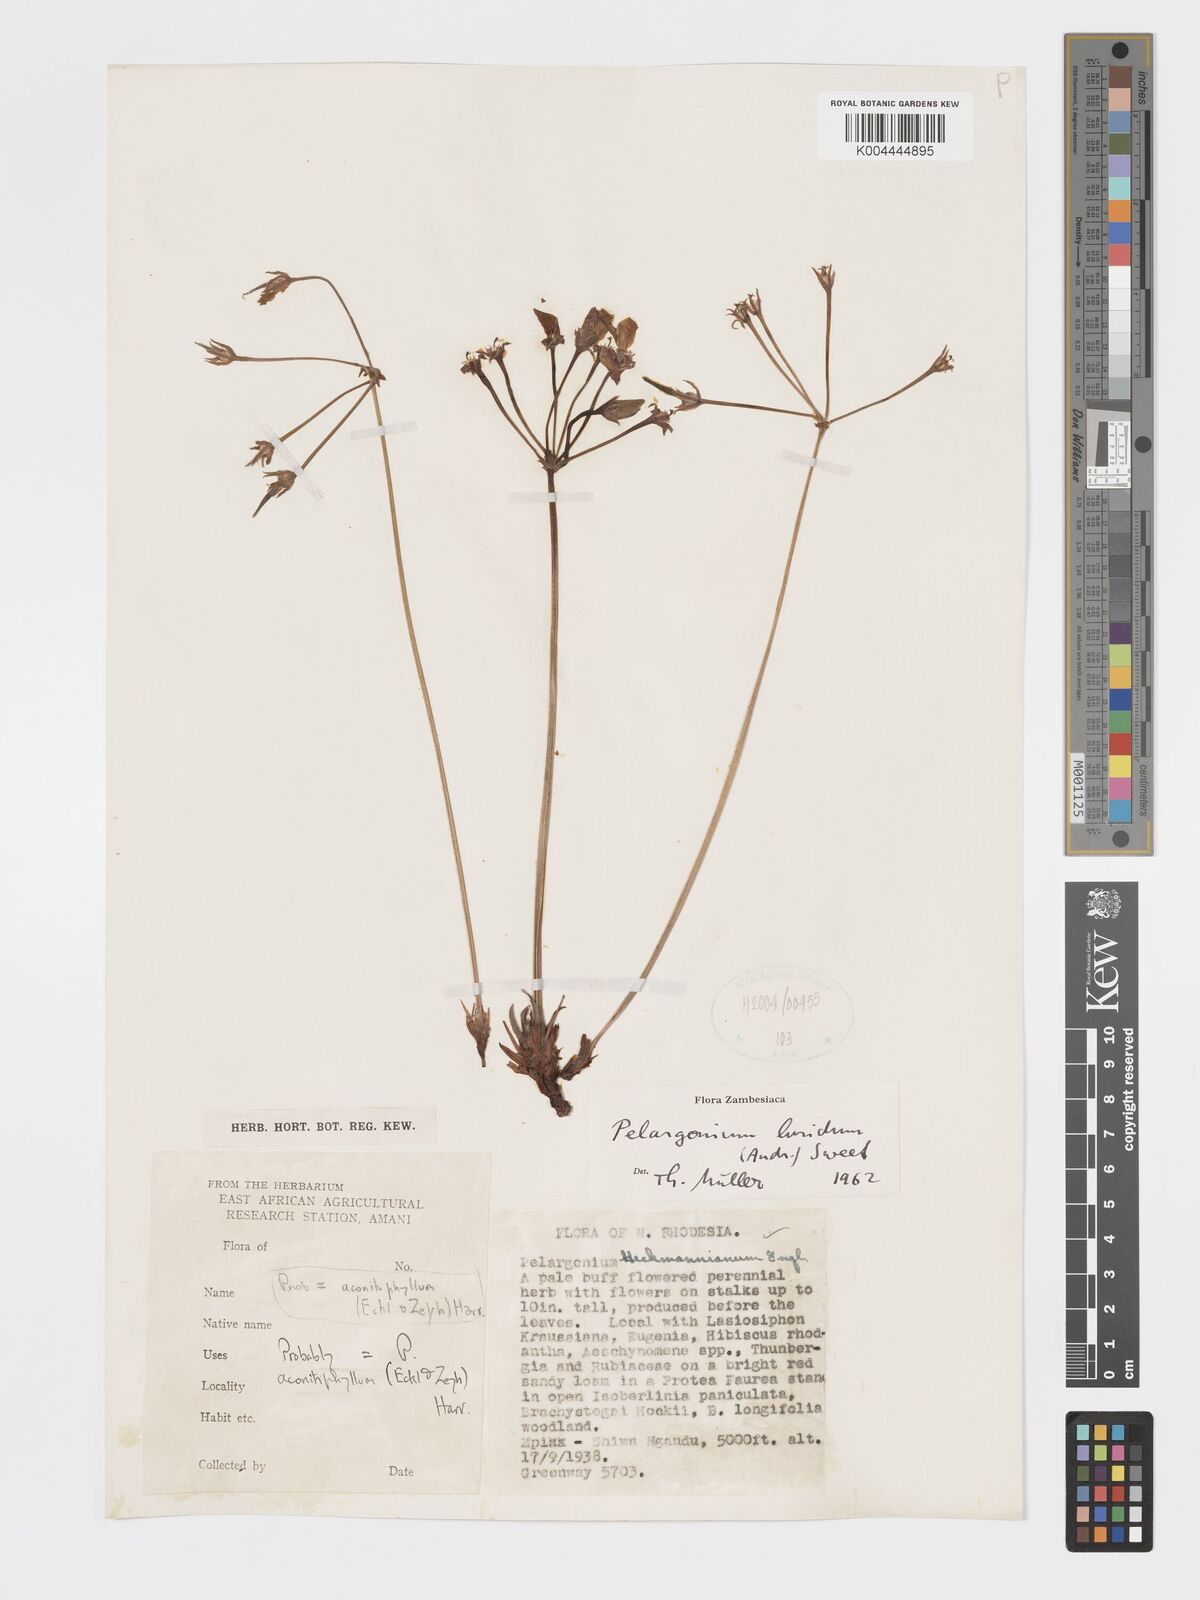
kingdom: Plantae
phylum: Tracheophyta
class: Magnoliopsida
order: Geraniales
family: Geraniaceae
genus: Pelargonium
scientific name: Pelargonium luridum
